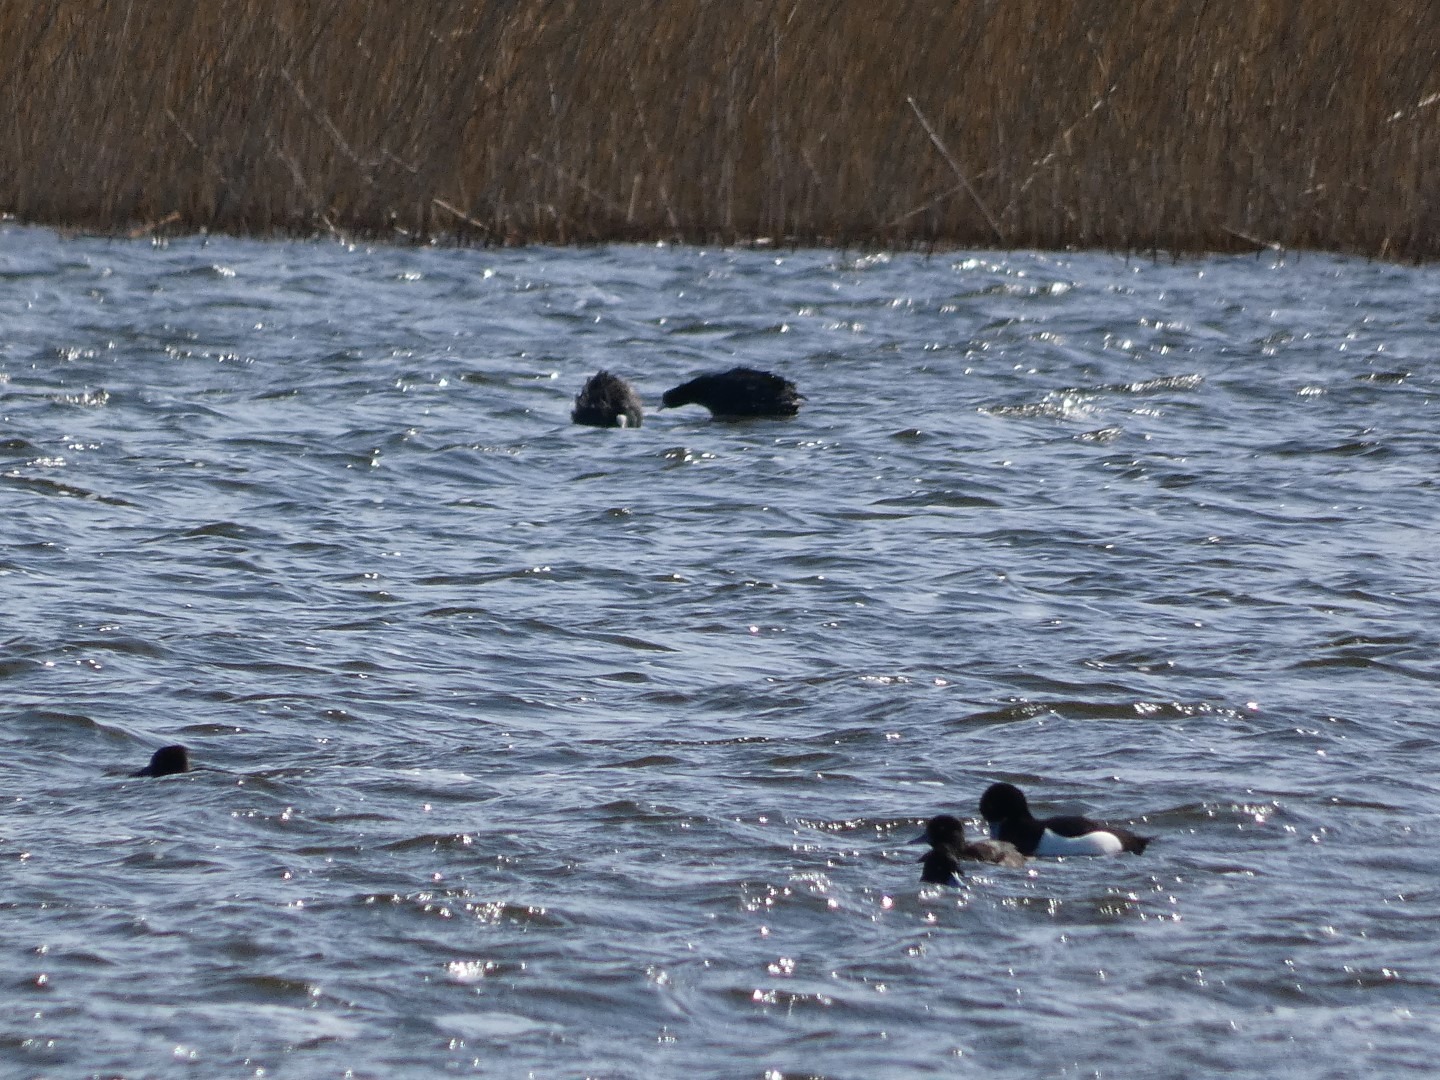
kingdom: Animalia
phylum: Chordata
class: Aves
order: Gruiformes
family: Rallidae
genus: Fulica
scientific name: Fulica atra
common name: Blishøne
